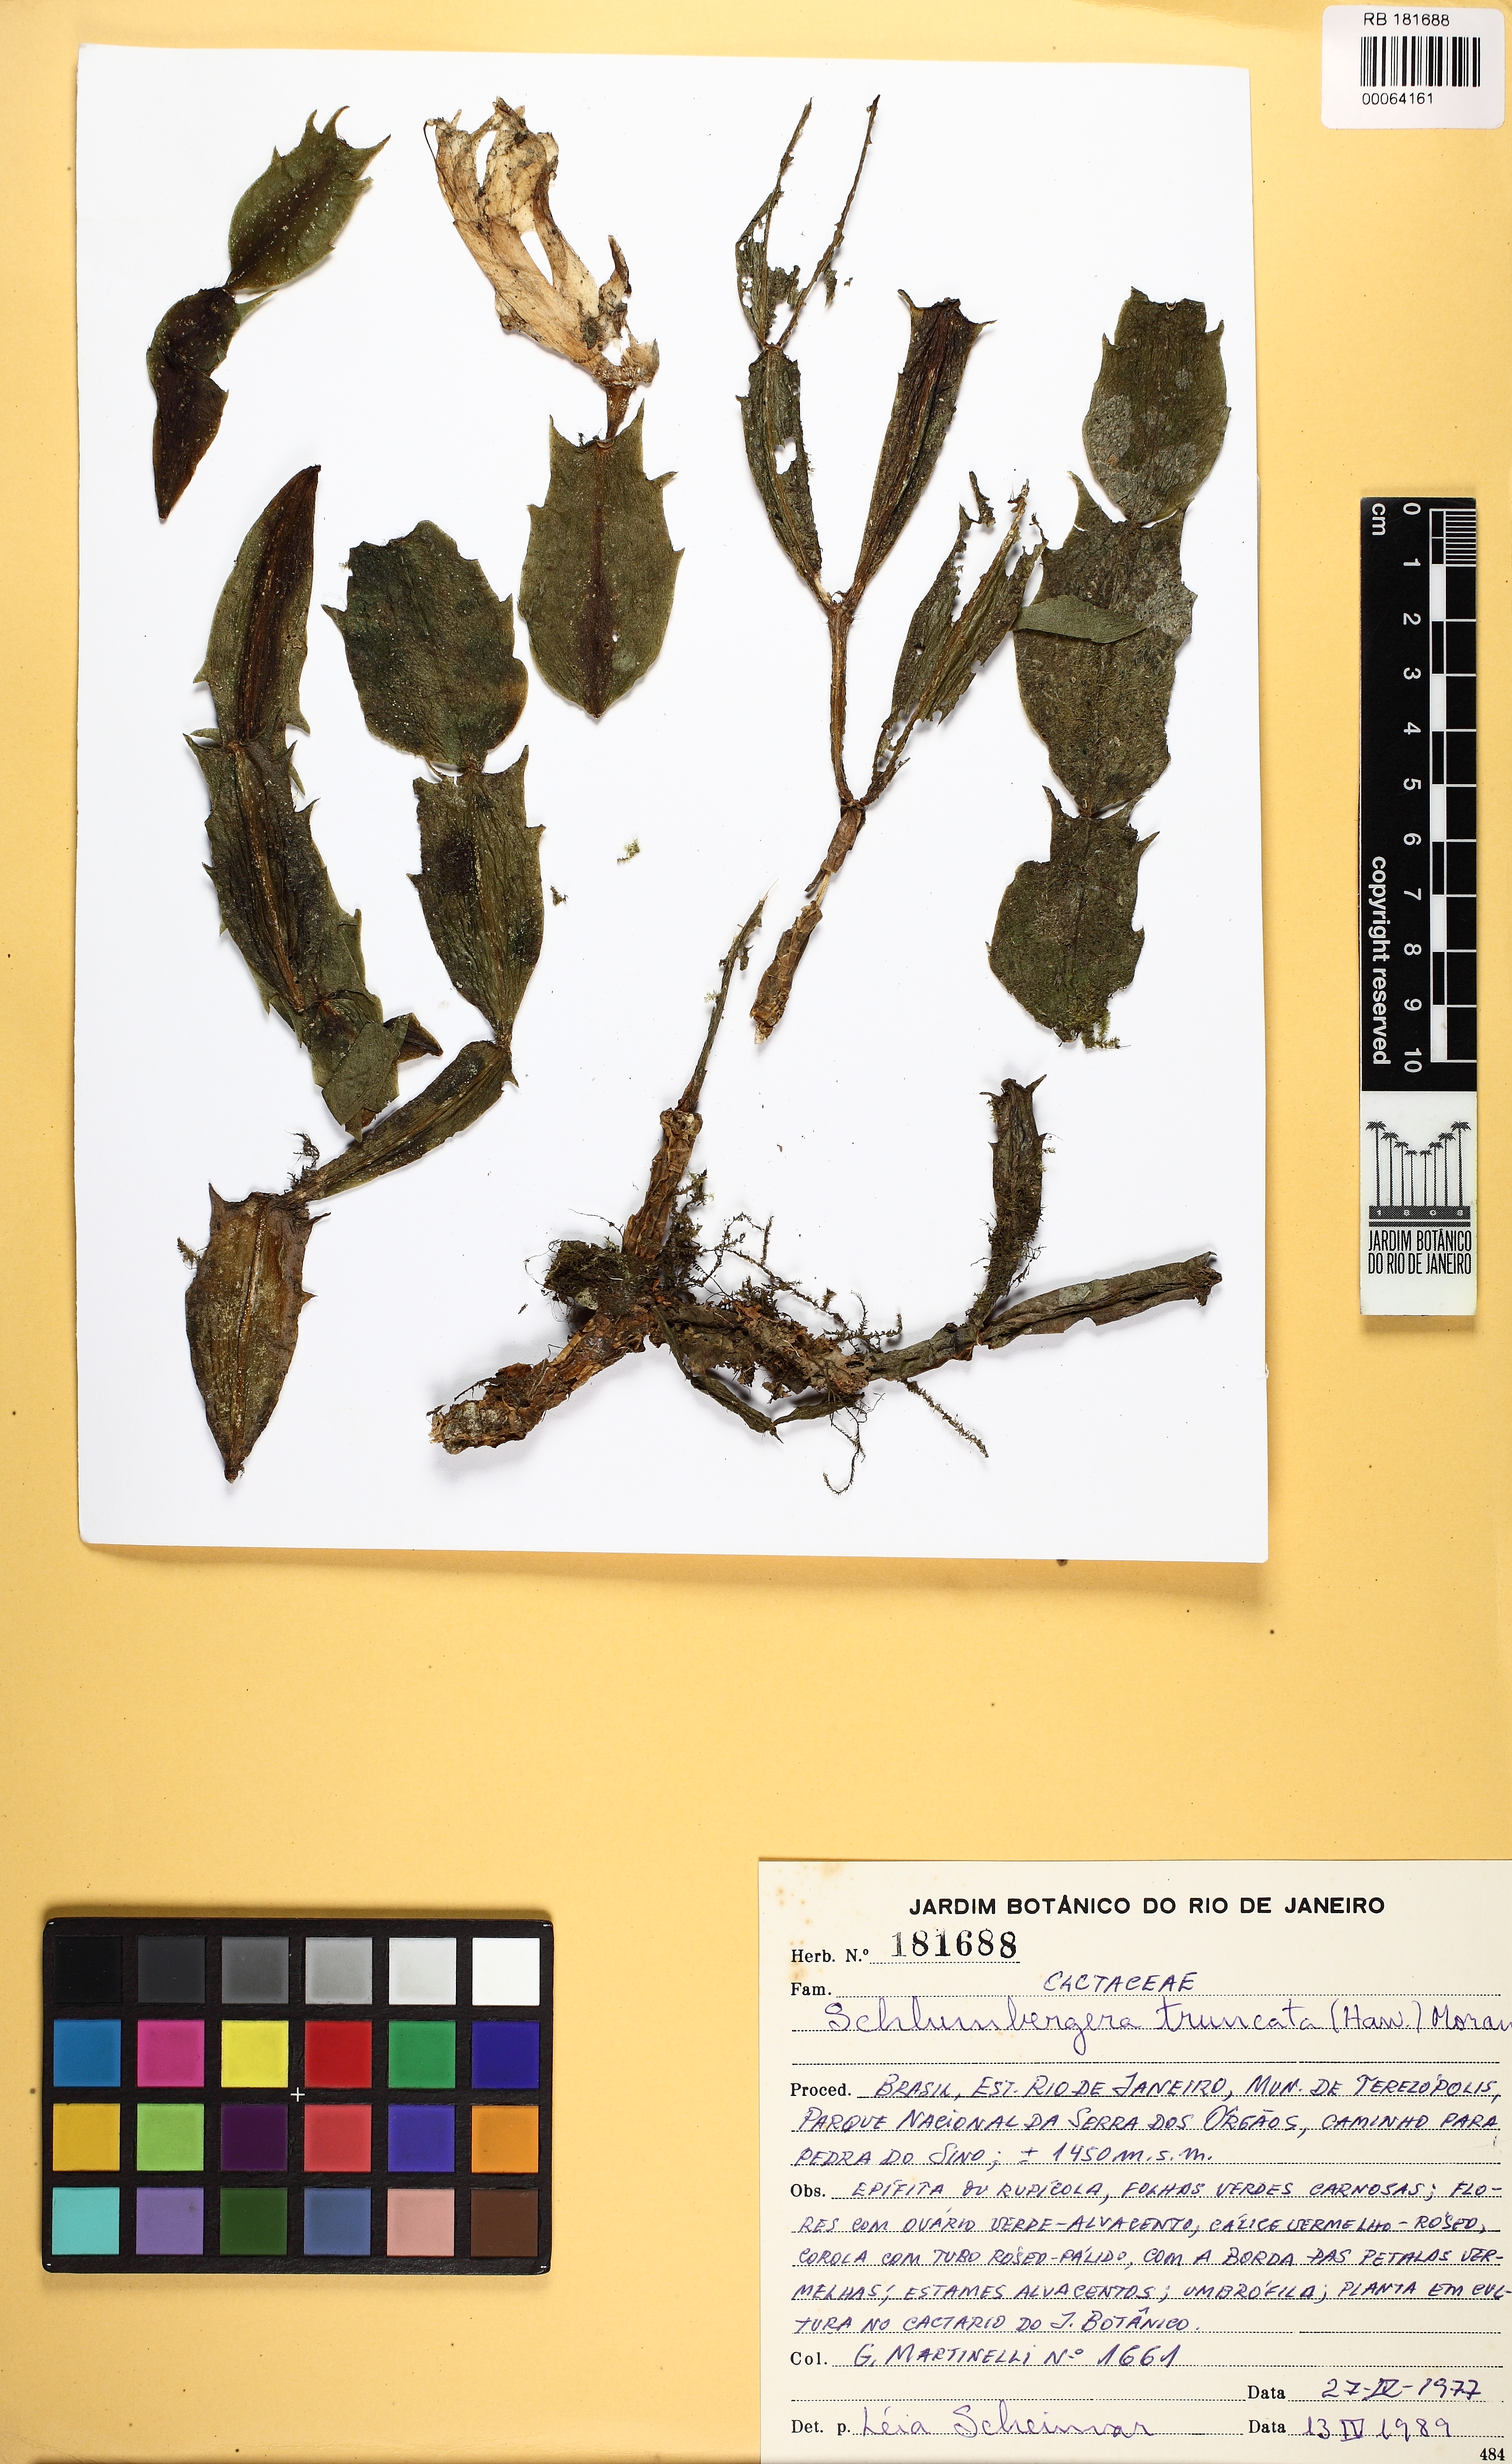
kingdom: Plantae
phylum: Tracheophyta
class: Magnoliopsida
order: Caryophyllales
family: Cactaceae
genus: Schlumbergera
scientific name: Schlumbergera truncata
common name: Thanksgiving cactus
